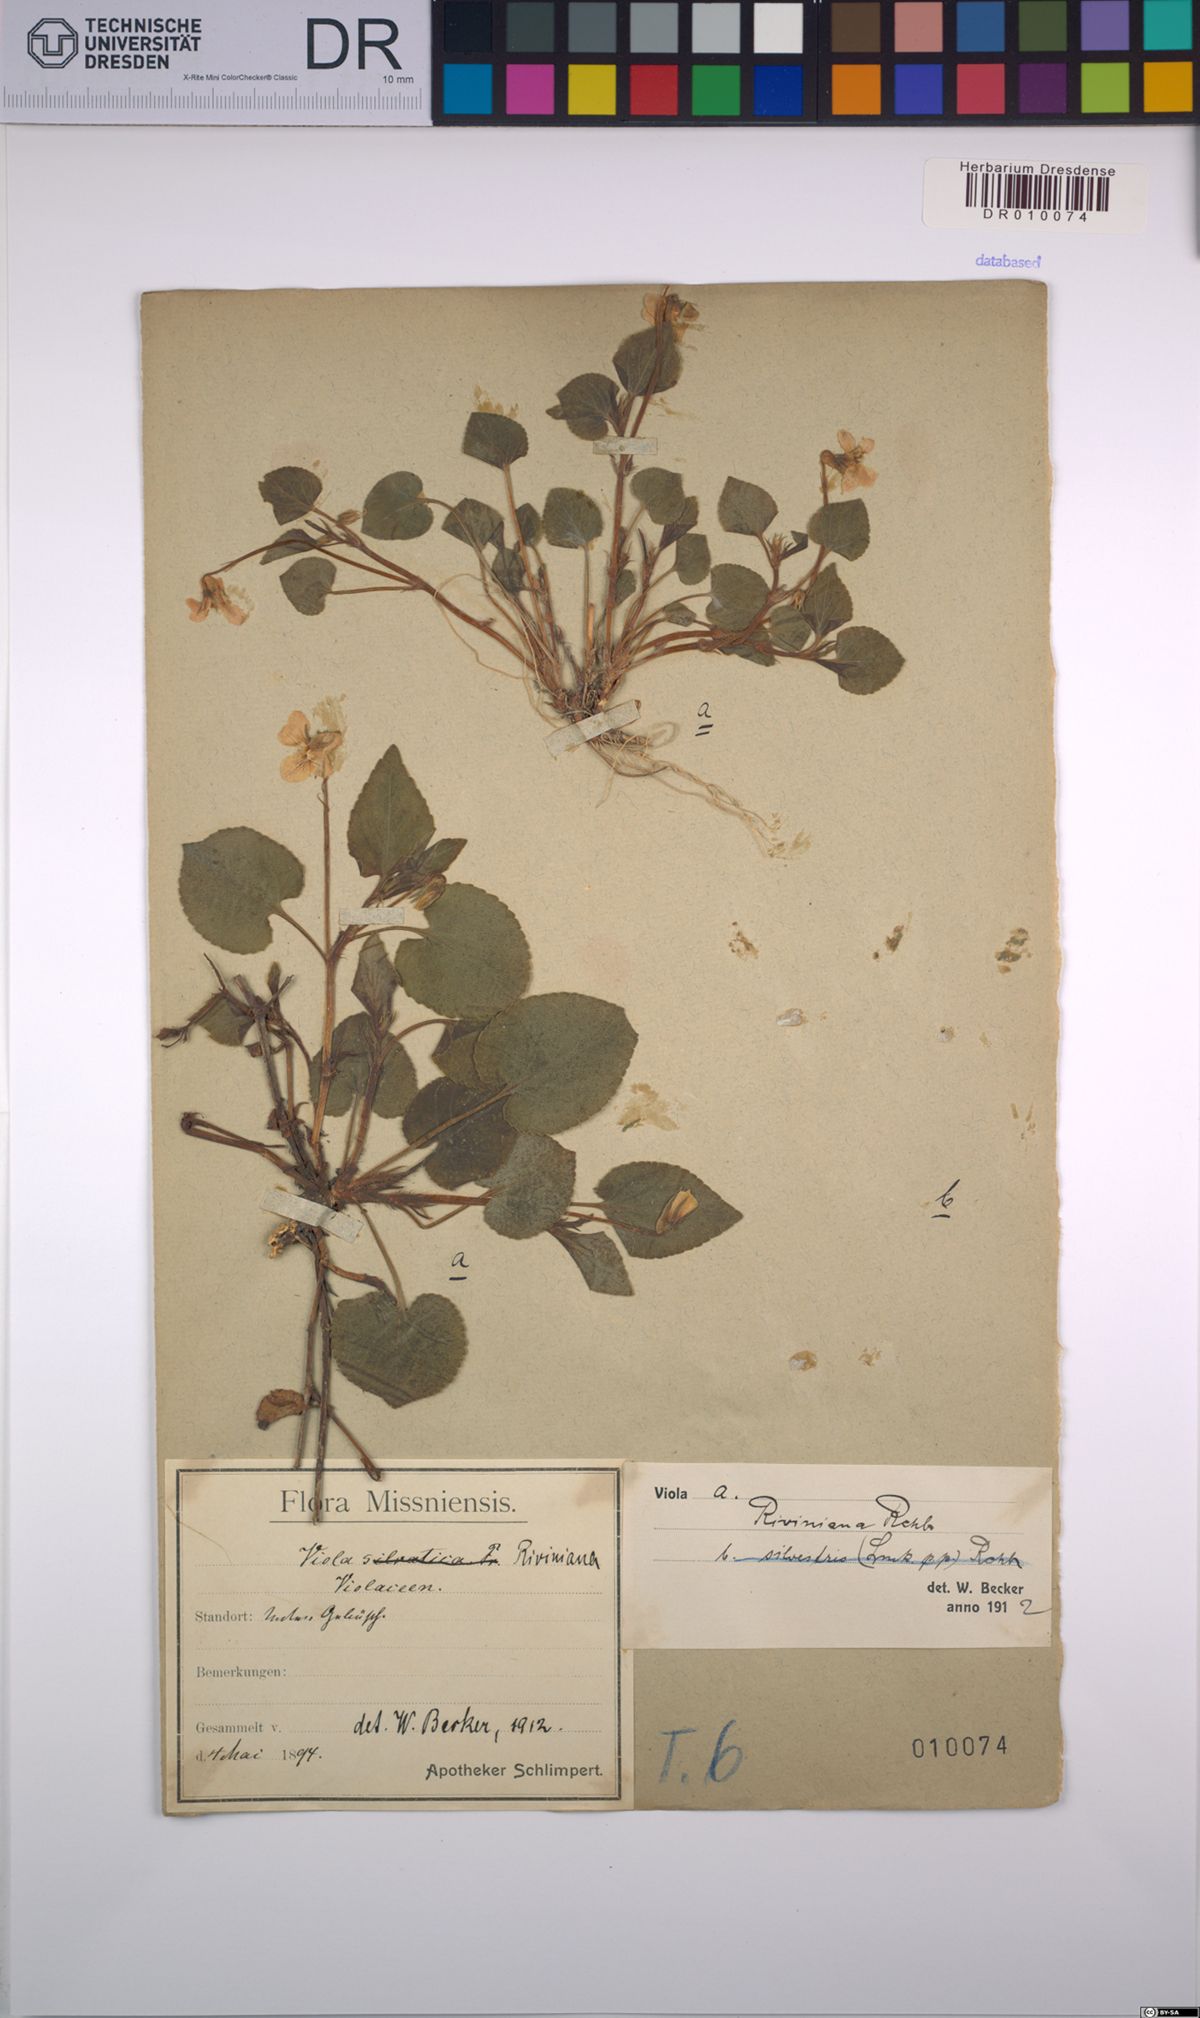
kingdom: Plantae
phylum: Tracheophyta
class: Magnoliopsida
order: Malpighiales
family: Violaceae
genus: Viola
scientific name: Viola riviniana
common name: Common dog-violet
